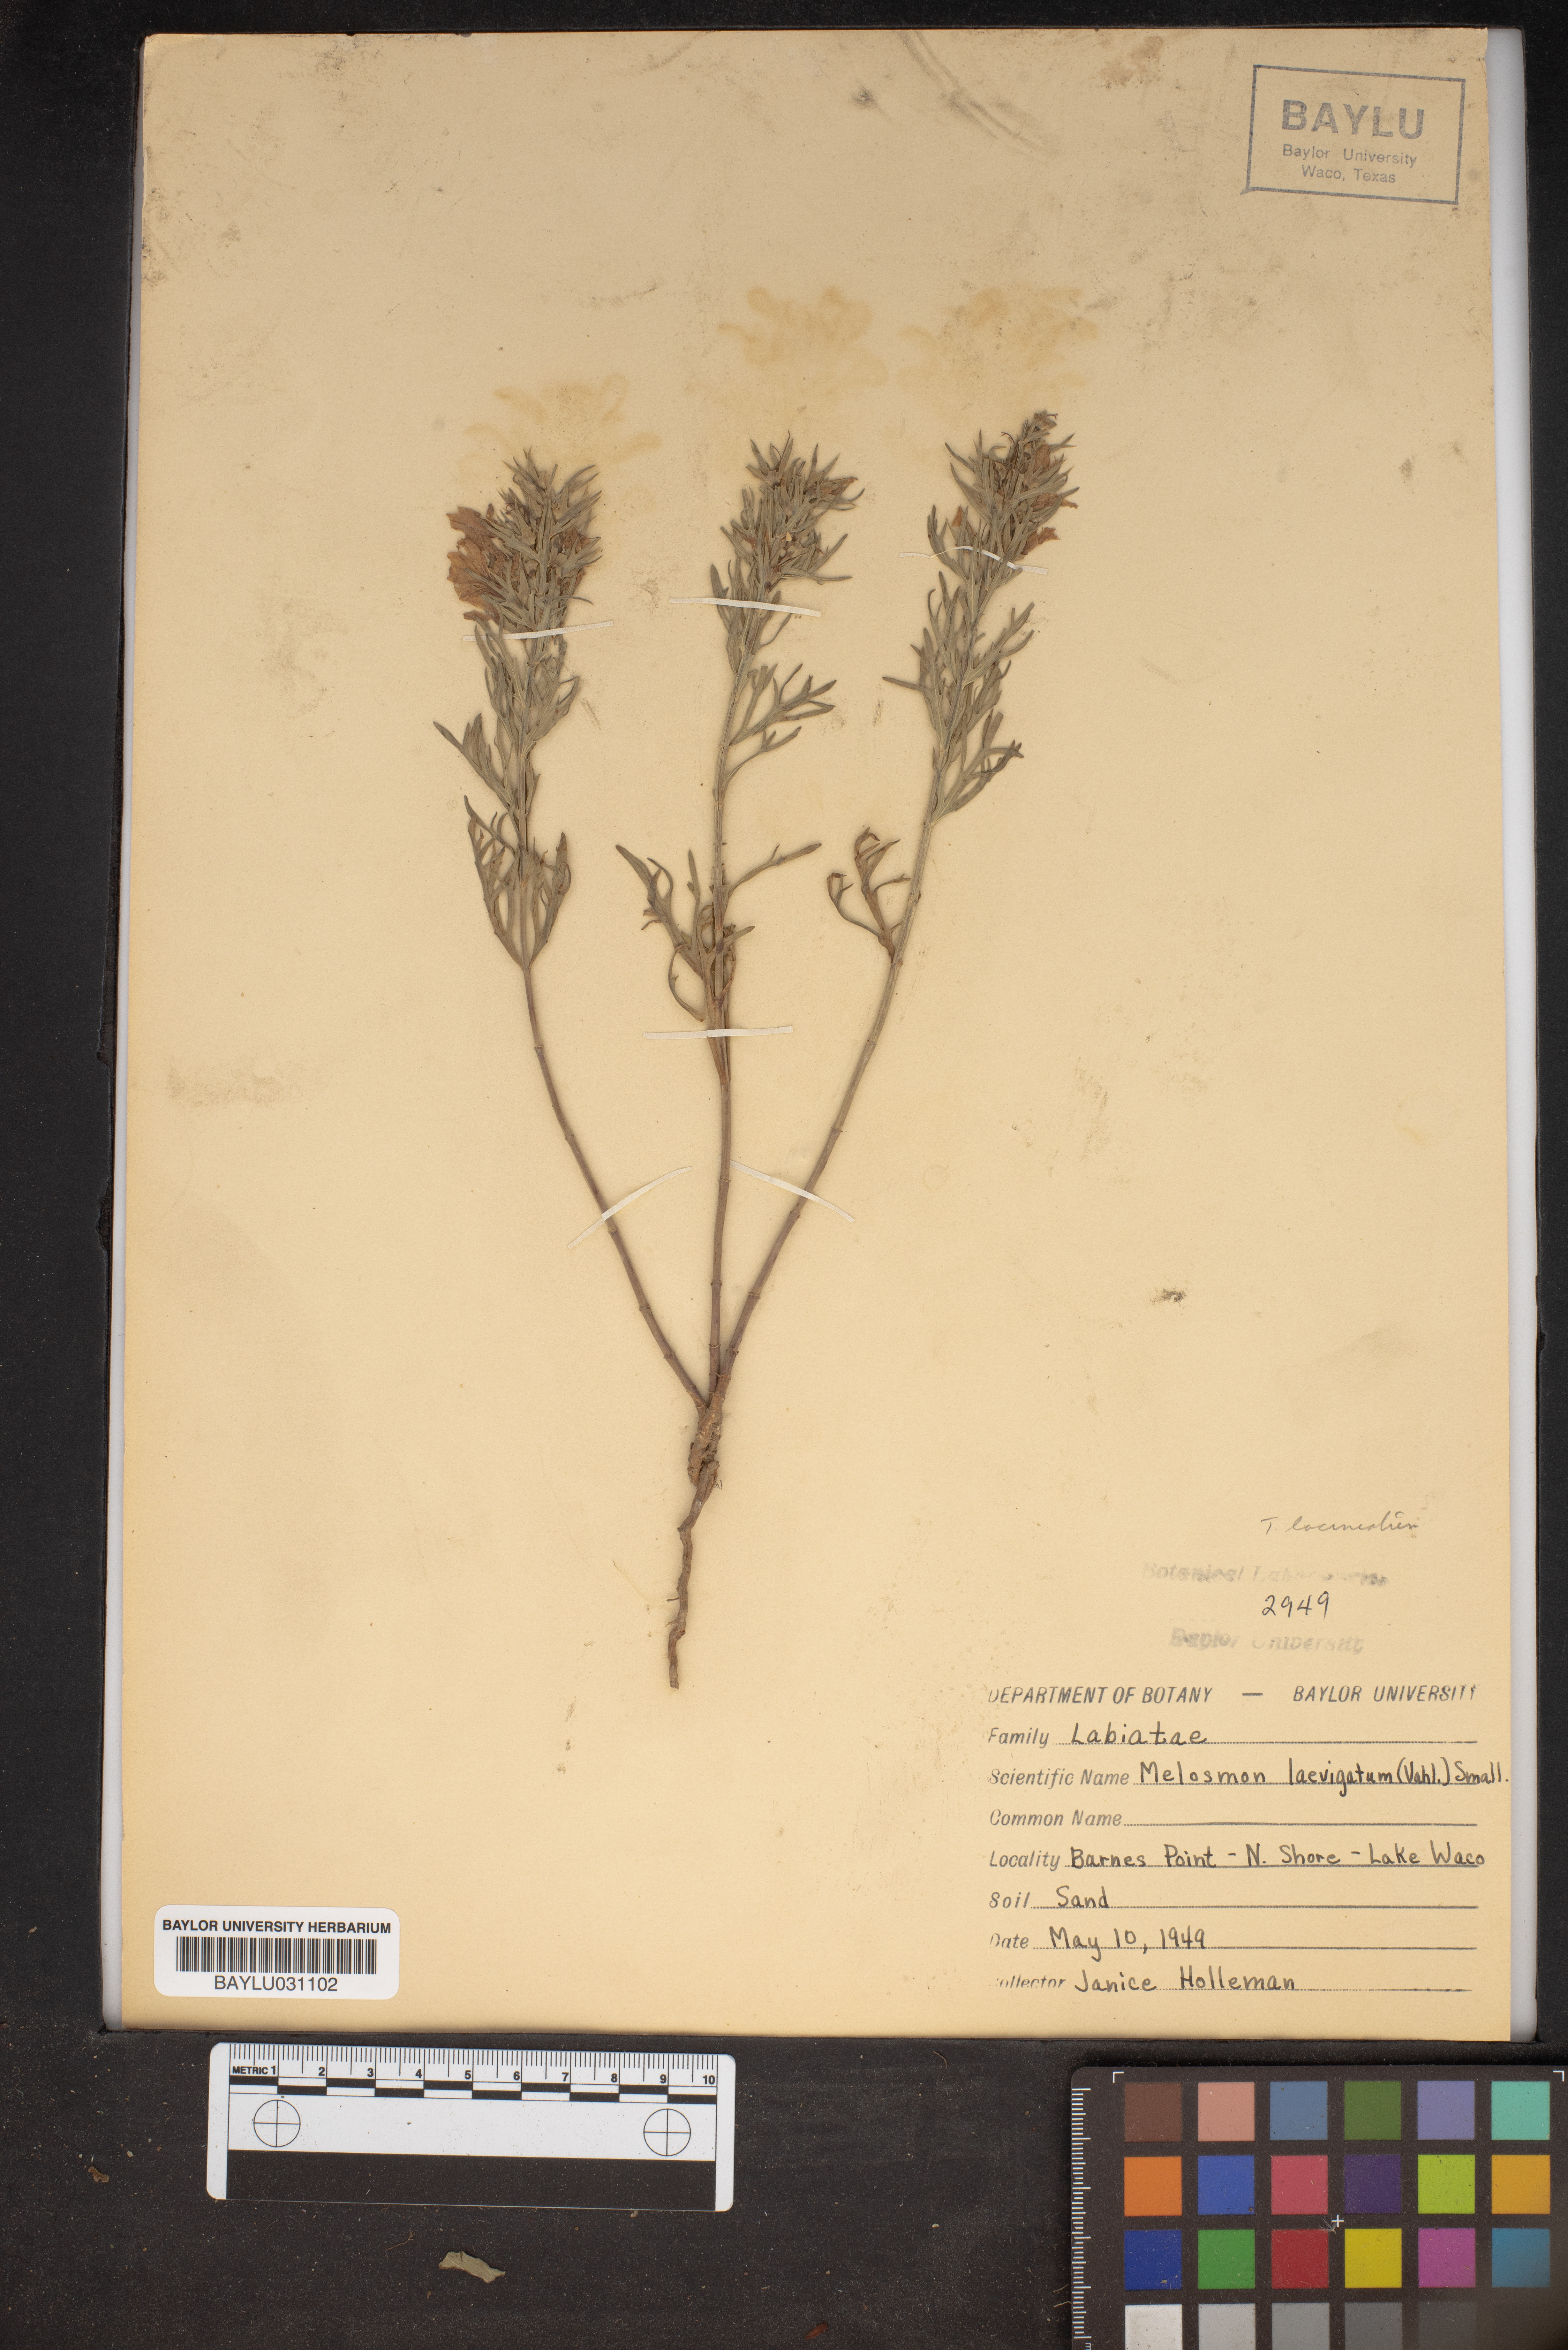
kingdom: Plantae
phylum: Tracheophyta
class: Magnoliopsida
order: Lamiales
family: Lamiaceae
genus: Teucrium
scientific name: Teucrium cubense
